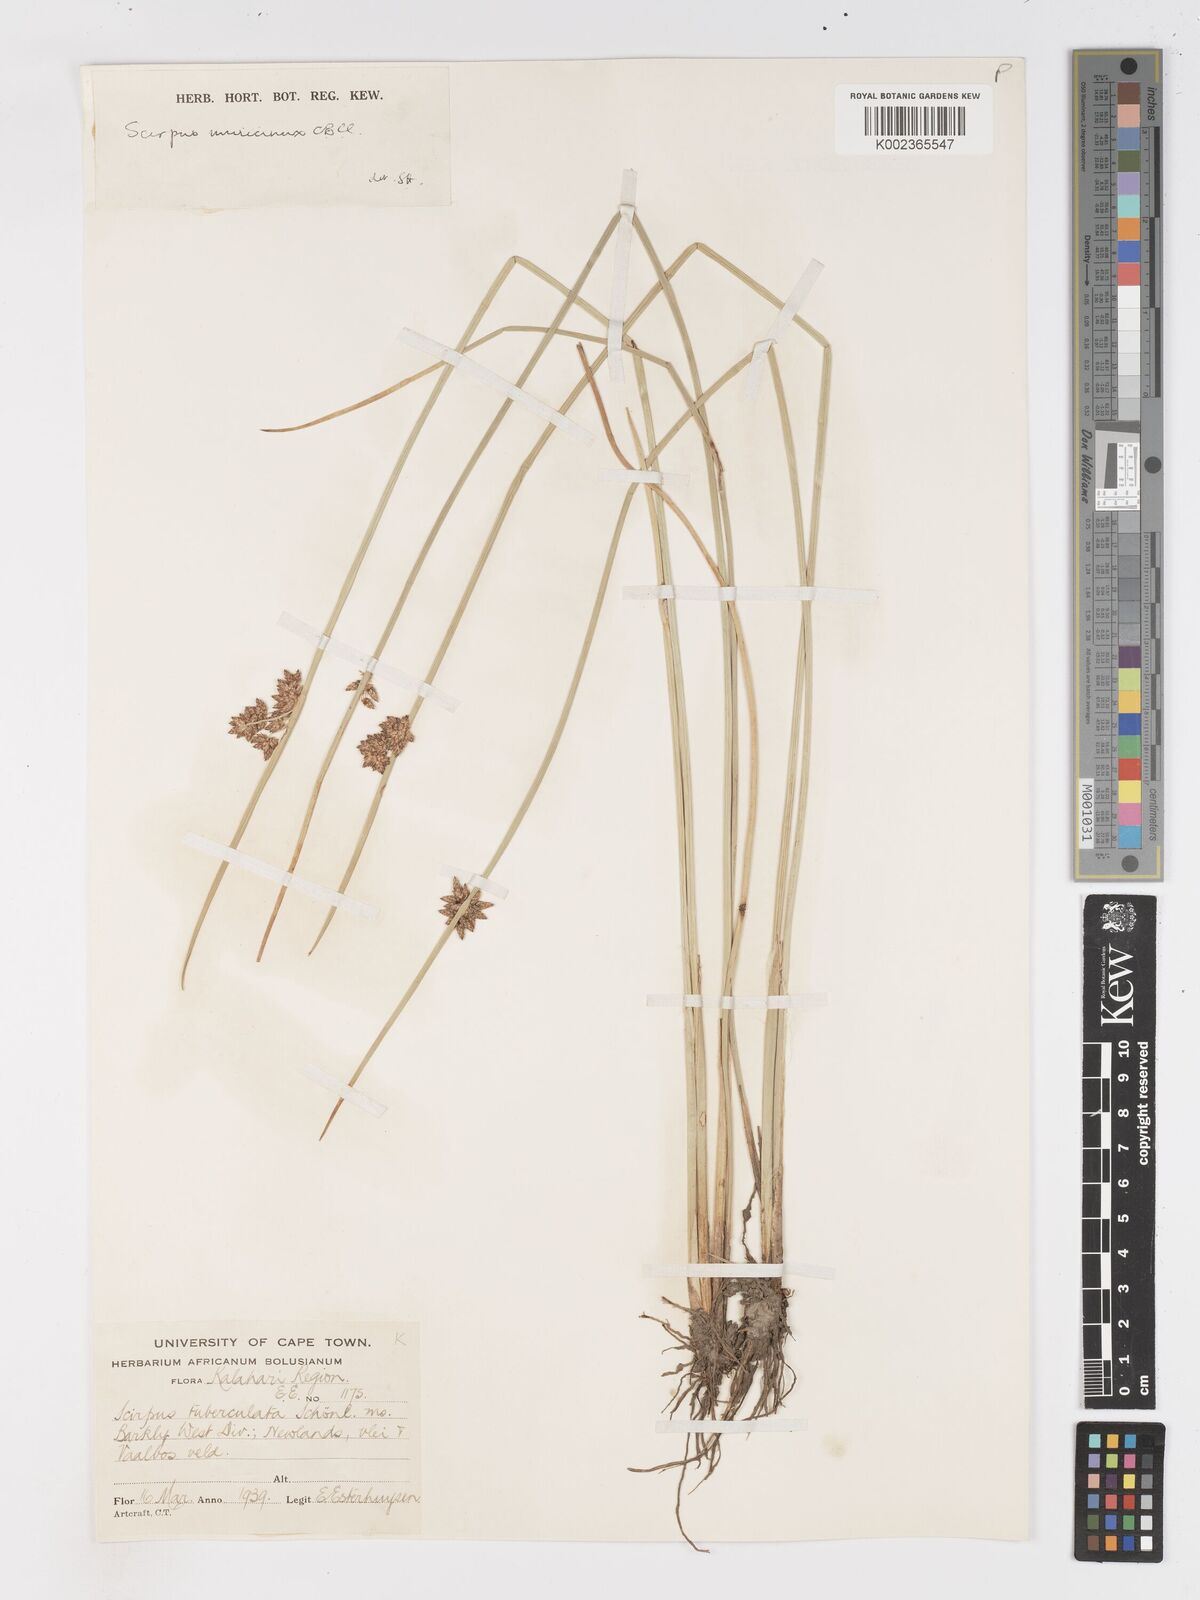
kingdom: Plantae
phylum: Tracheophyta
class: Liliopsida
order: Poales
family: Cyperaceae
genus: Schoenoplectiella
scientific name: Schoenoplectiella muricinux
